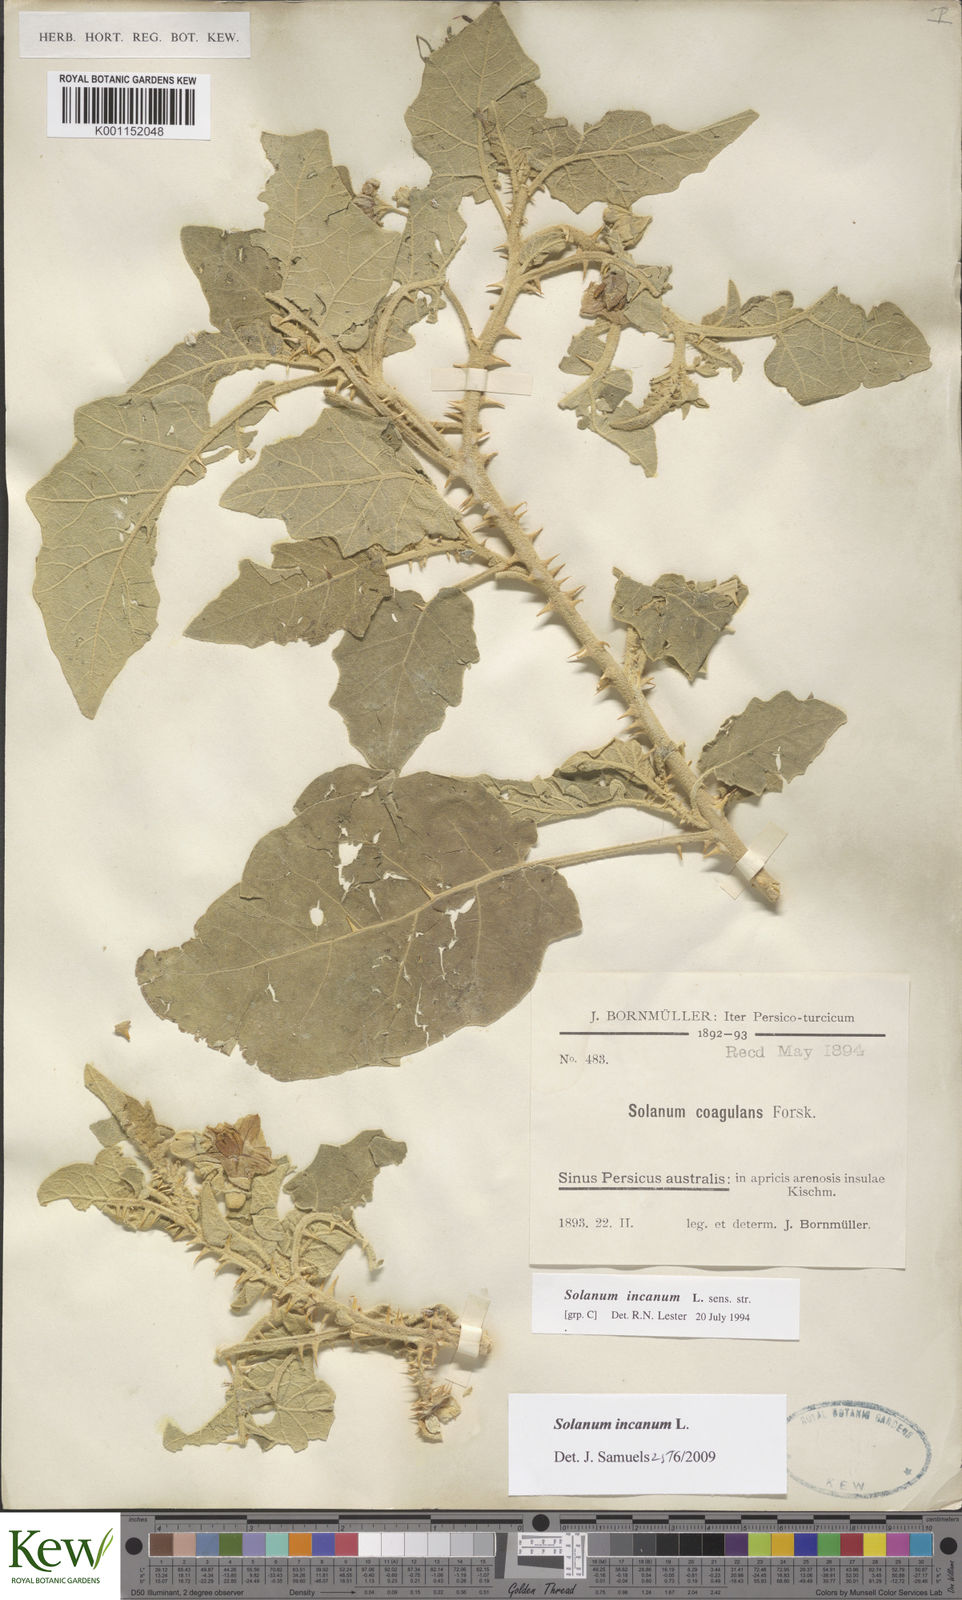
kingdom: Plantae
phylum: Tracheophyta
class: Magnoliopsida
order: Solanales
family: Solanaceae
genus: Solanum
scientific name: Solanum incanum
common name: Bitter apple
